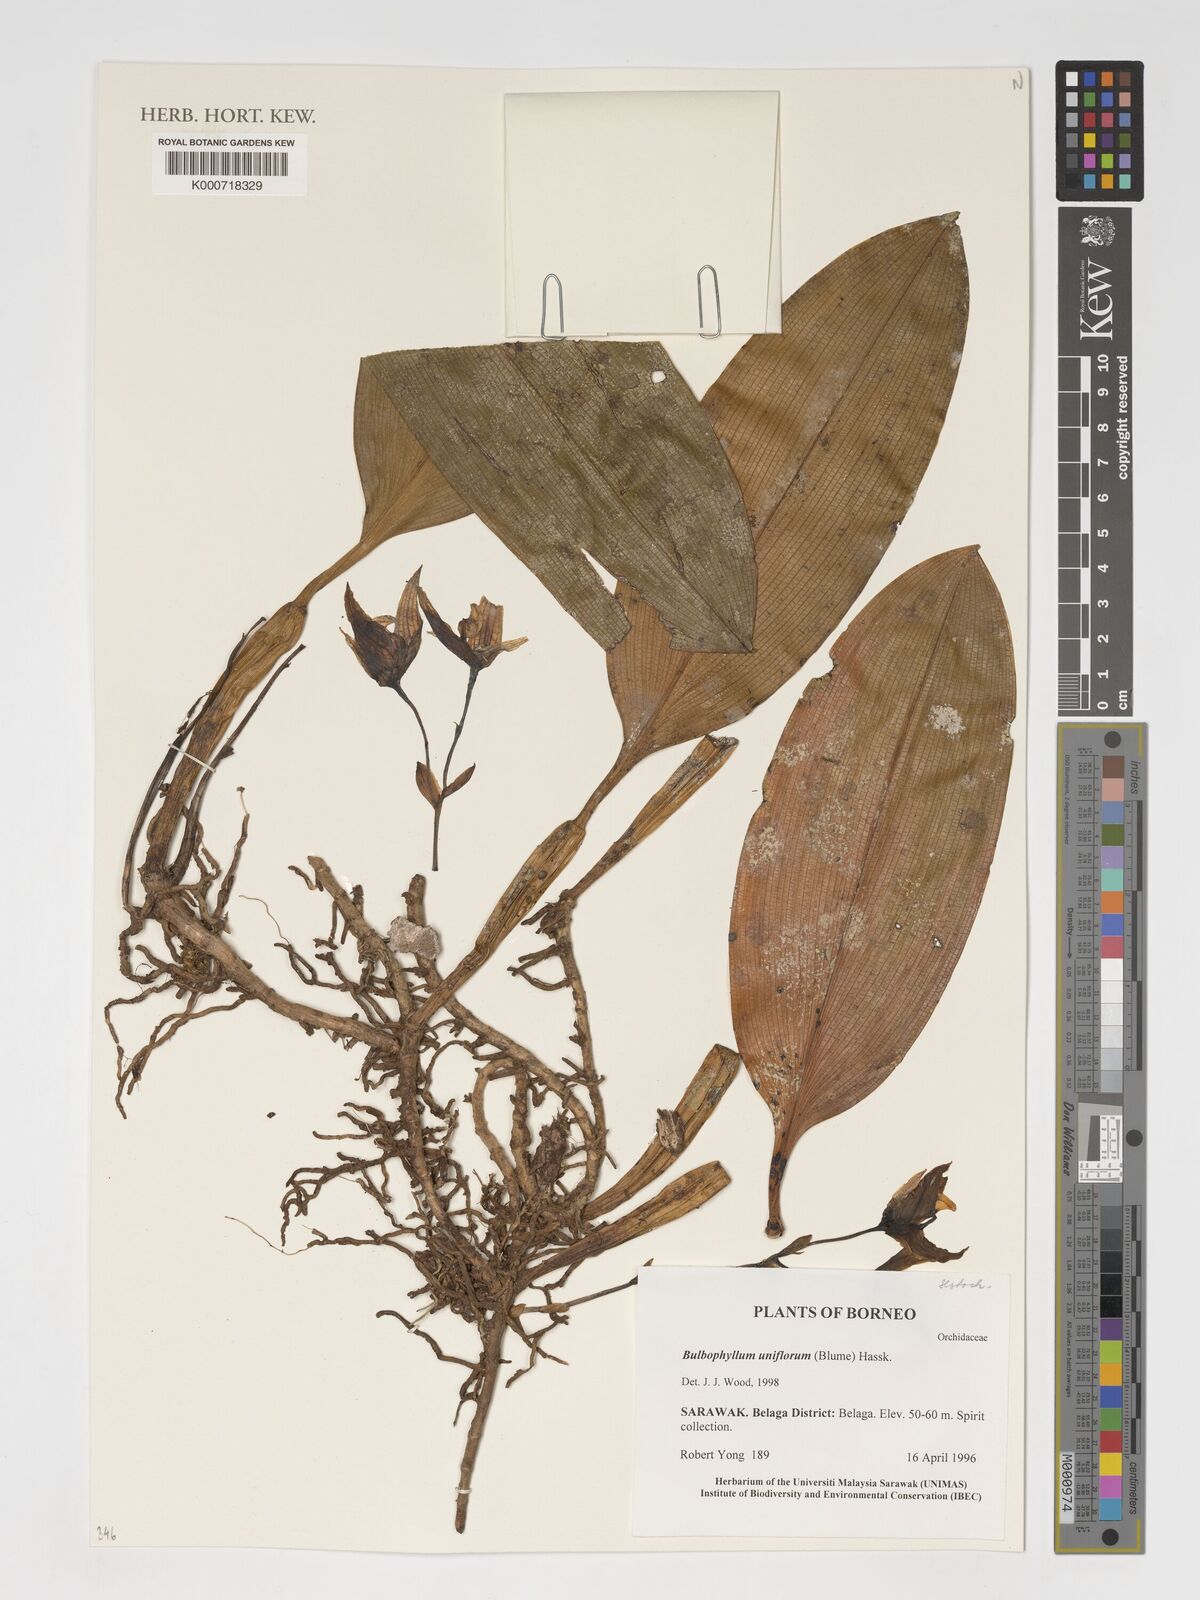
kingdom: Plantae
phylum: Tracheophyta
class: Liliopsida
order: Asparagales
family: Orchidaceae
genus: Bulbophyllum
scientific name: Bulbophyllum pteroglossum
